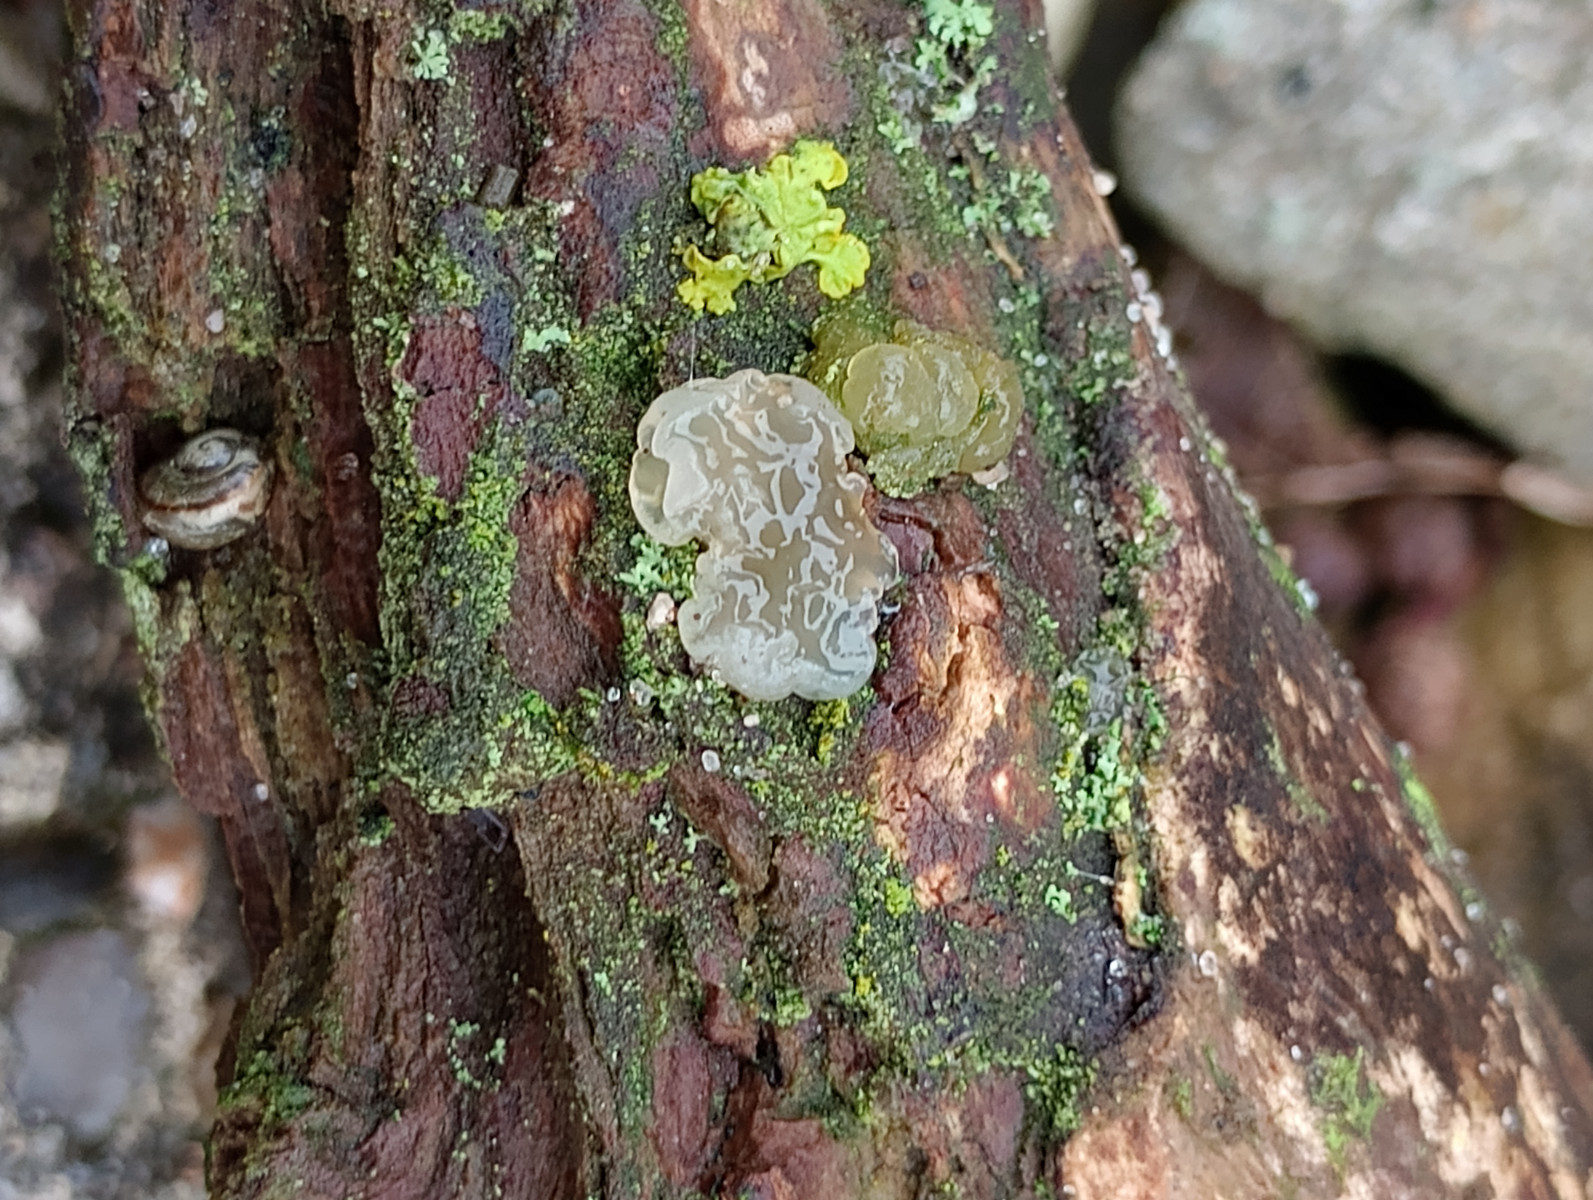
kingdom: Fungi
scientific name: Fungi
